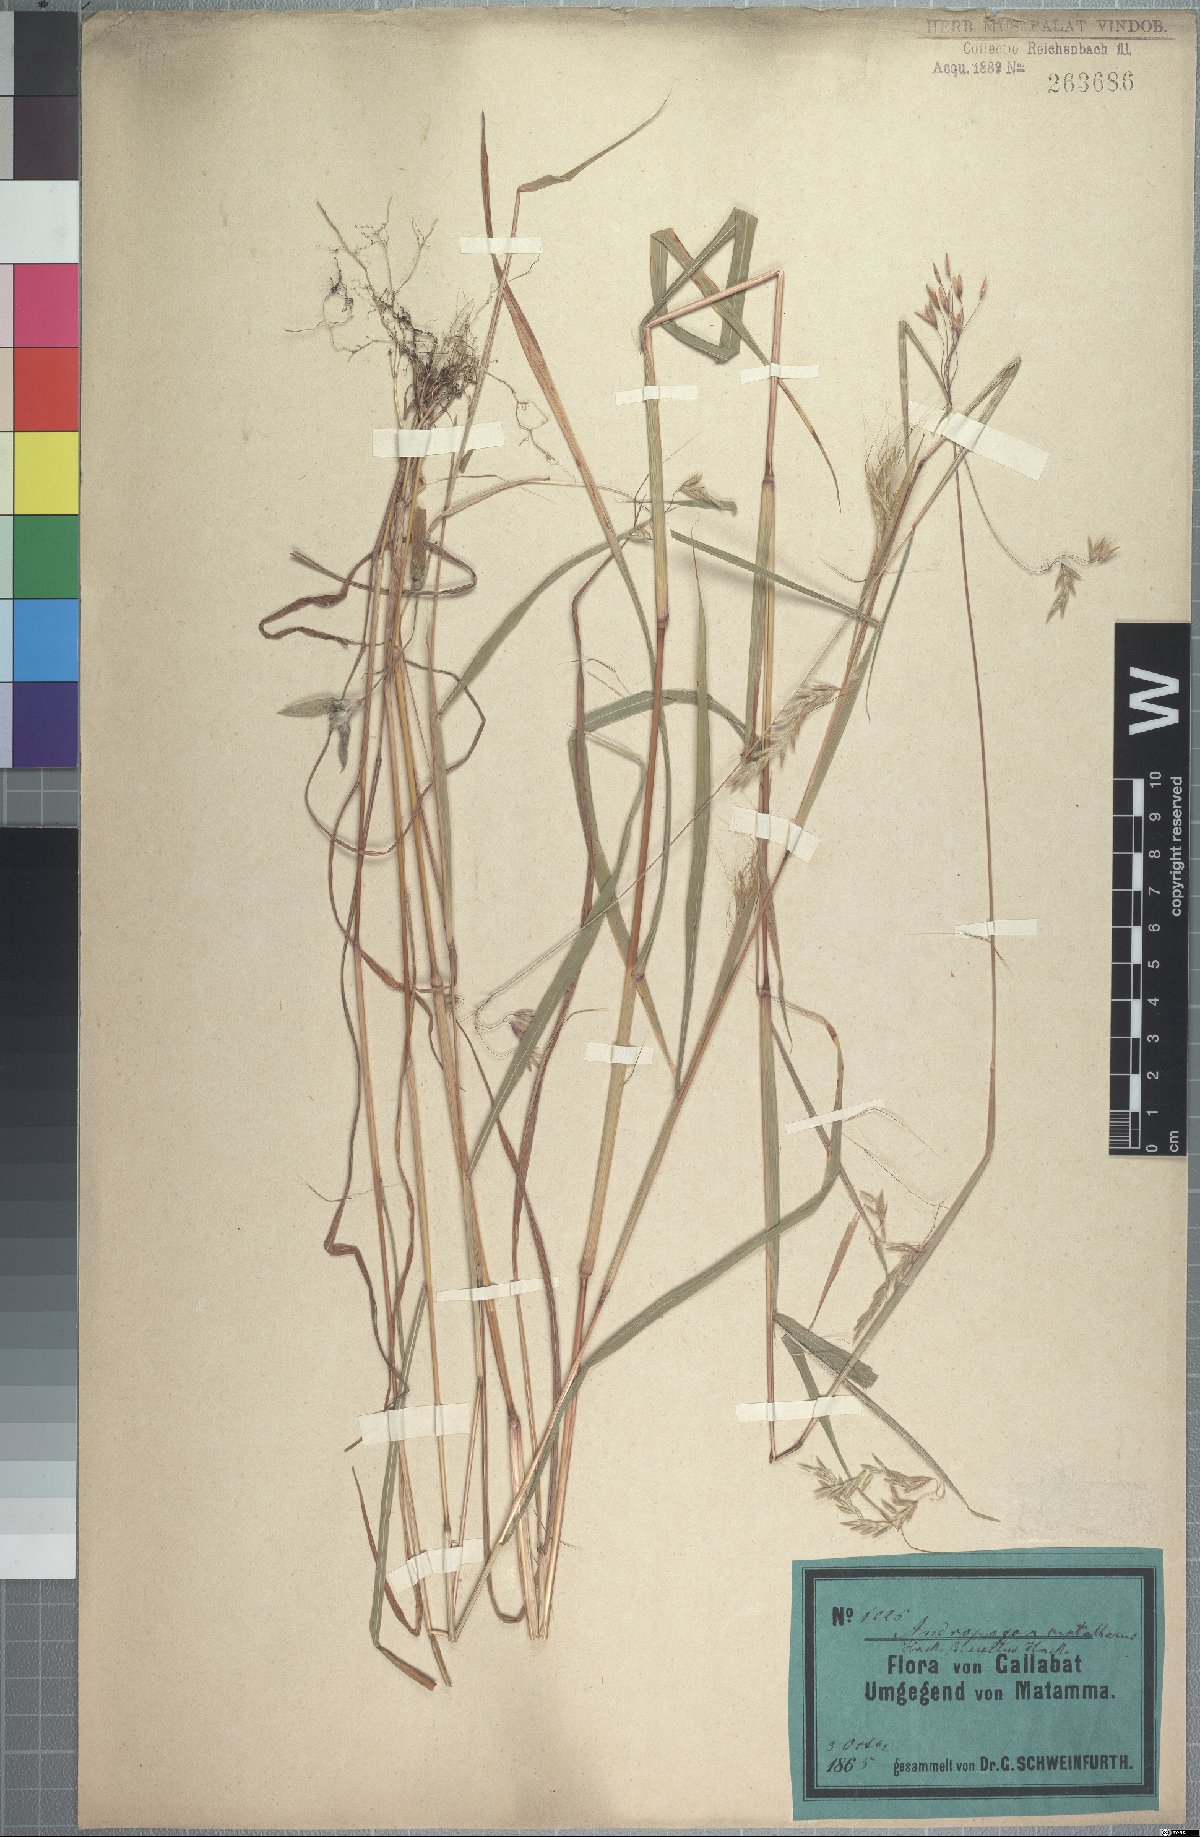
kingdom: Plantae
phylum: Tracheophyta
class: Liliopsida
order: Poales
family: Poaceae
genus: Euclasta
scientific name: Euclasta condylotricha
